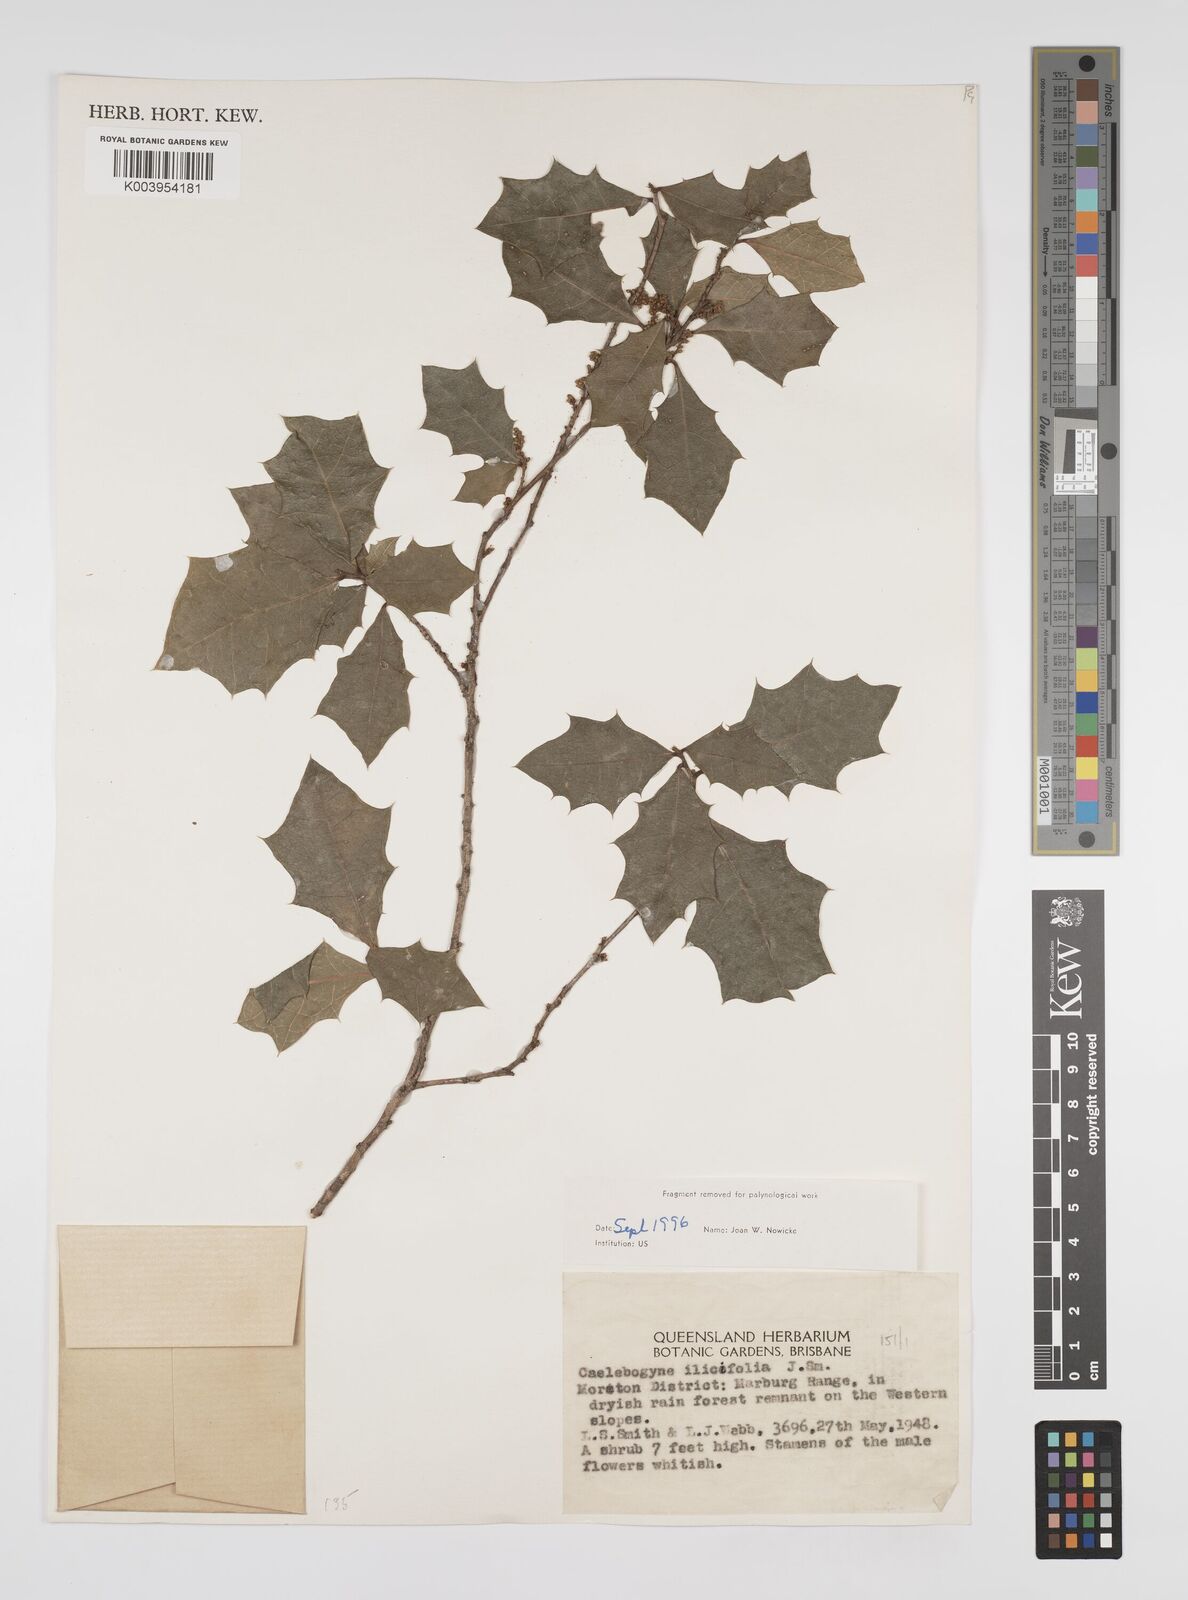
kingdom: Plantae
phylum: Tracheophyta
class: Magnoliopsida
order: Malpighiales
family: Euphorbiaceae
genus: Alchornea
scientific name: Alchornea ilicifolia
